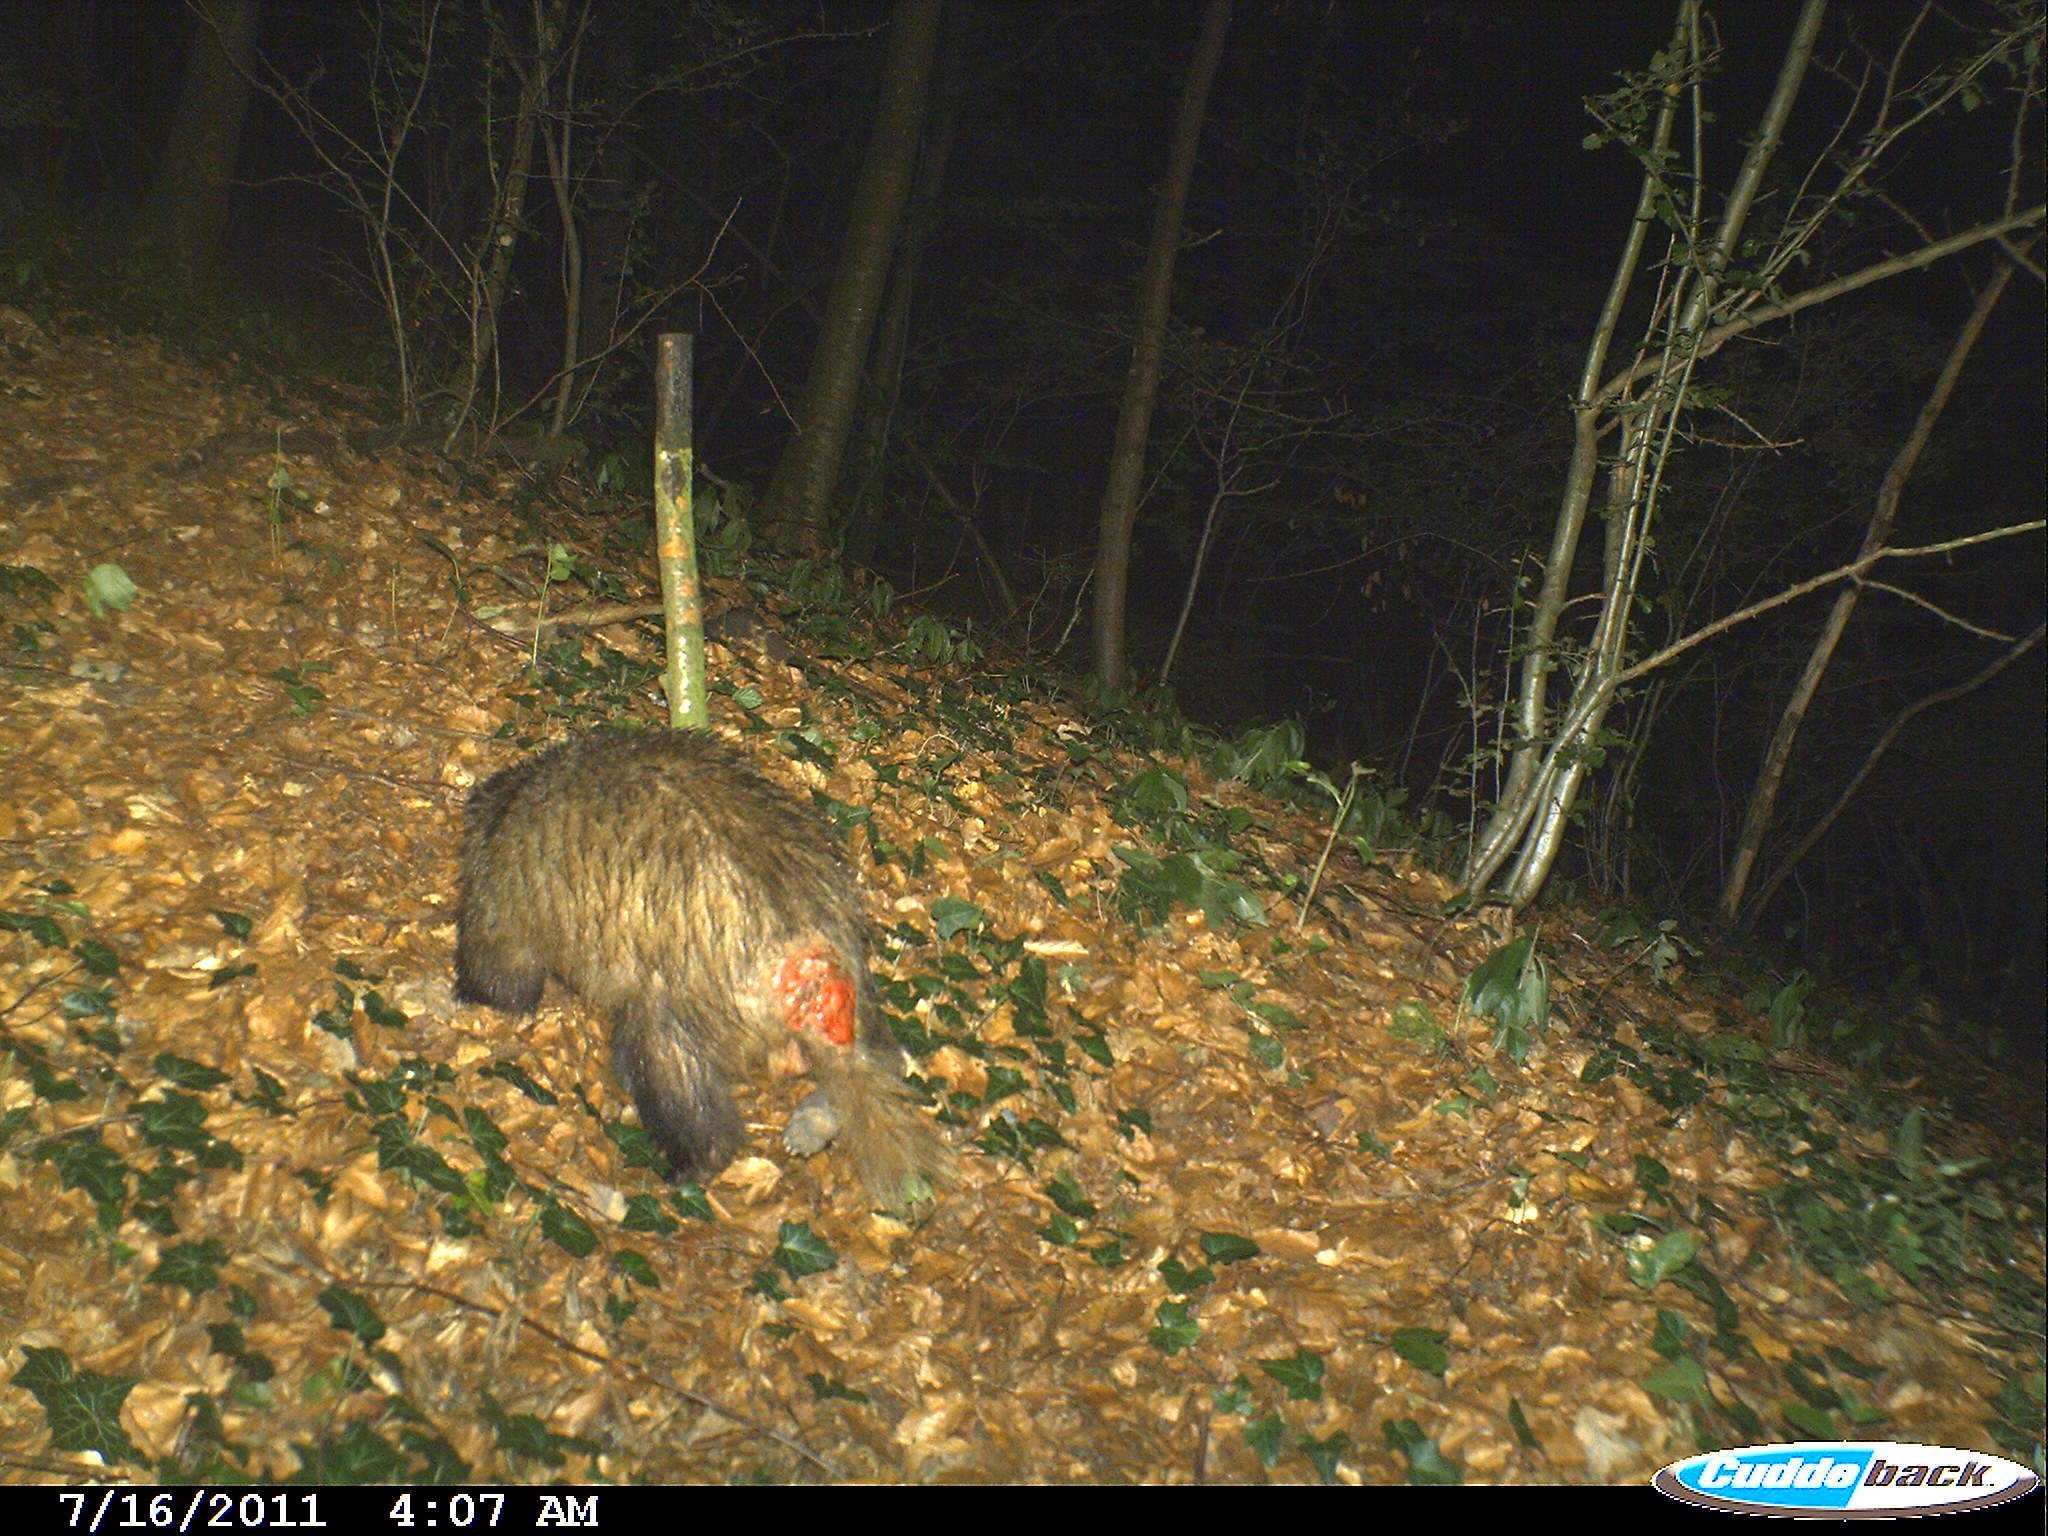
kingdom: Animalia
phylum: Chordata
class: Mammalia
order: Carnivora
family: Mustelidae
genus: Meles
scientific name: Meles meles
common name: Eurasian badger
